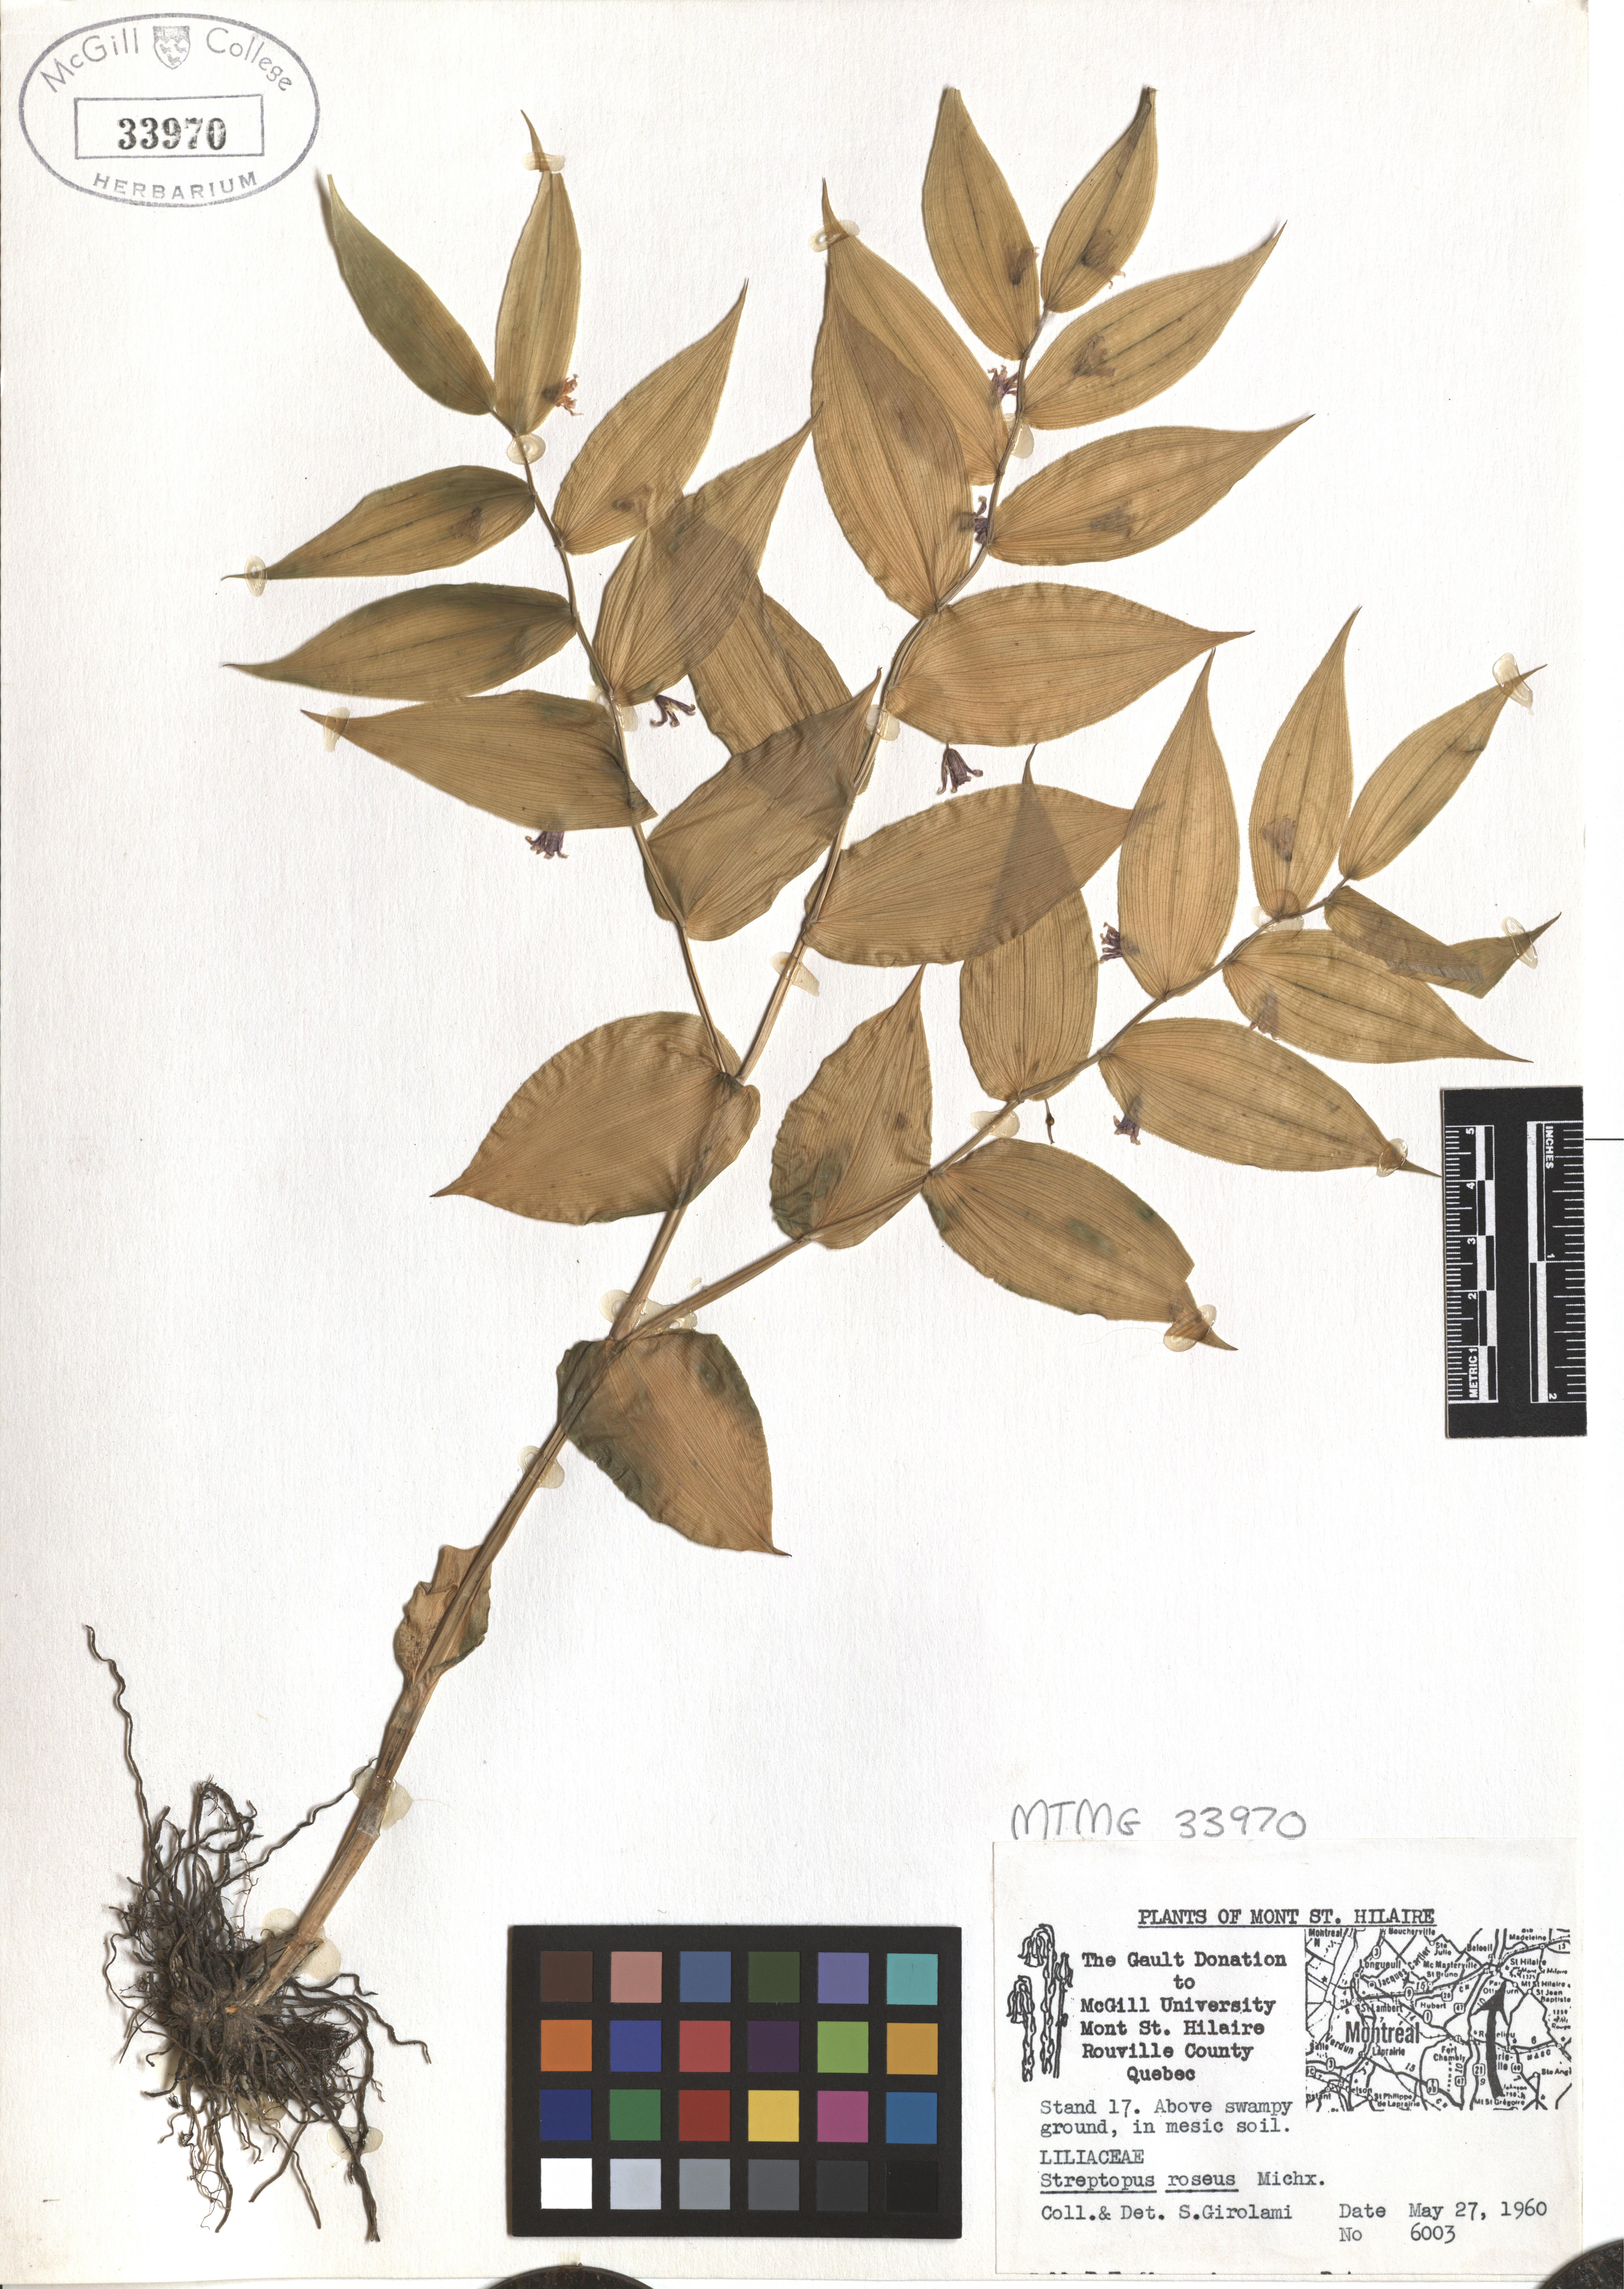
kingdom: Plantae
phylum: Tracheophyta
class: Liliopsida
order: Liliales
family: Liliaceae
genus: Streptopus
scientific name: Streptopus lanceolatus
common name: Rose mandarin
